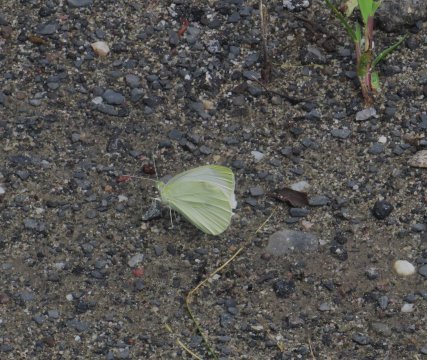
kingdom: Animalia
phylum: Arthropoda
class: Insecta
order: Lepidoptera
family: Pieridae
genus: Pieris
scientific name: Pieris rapae
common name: Cabbage White
